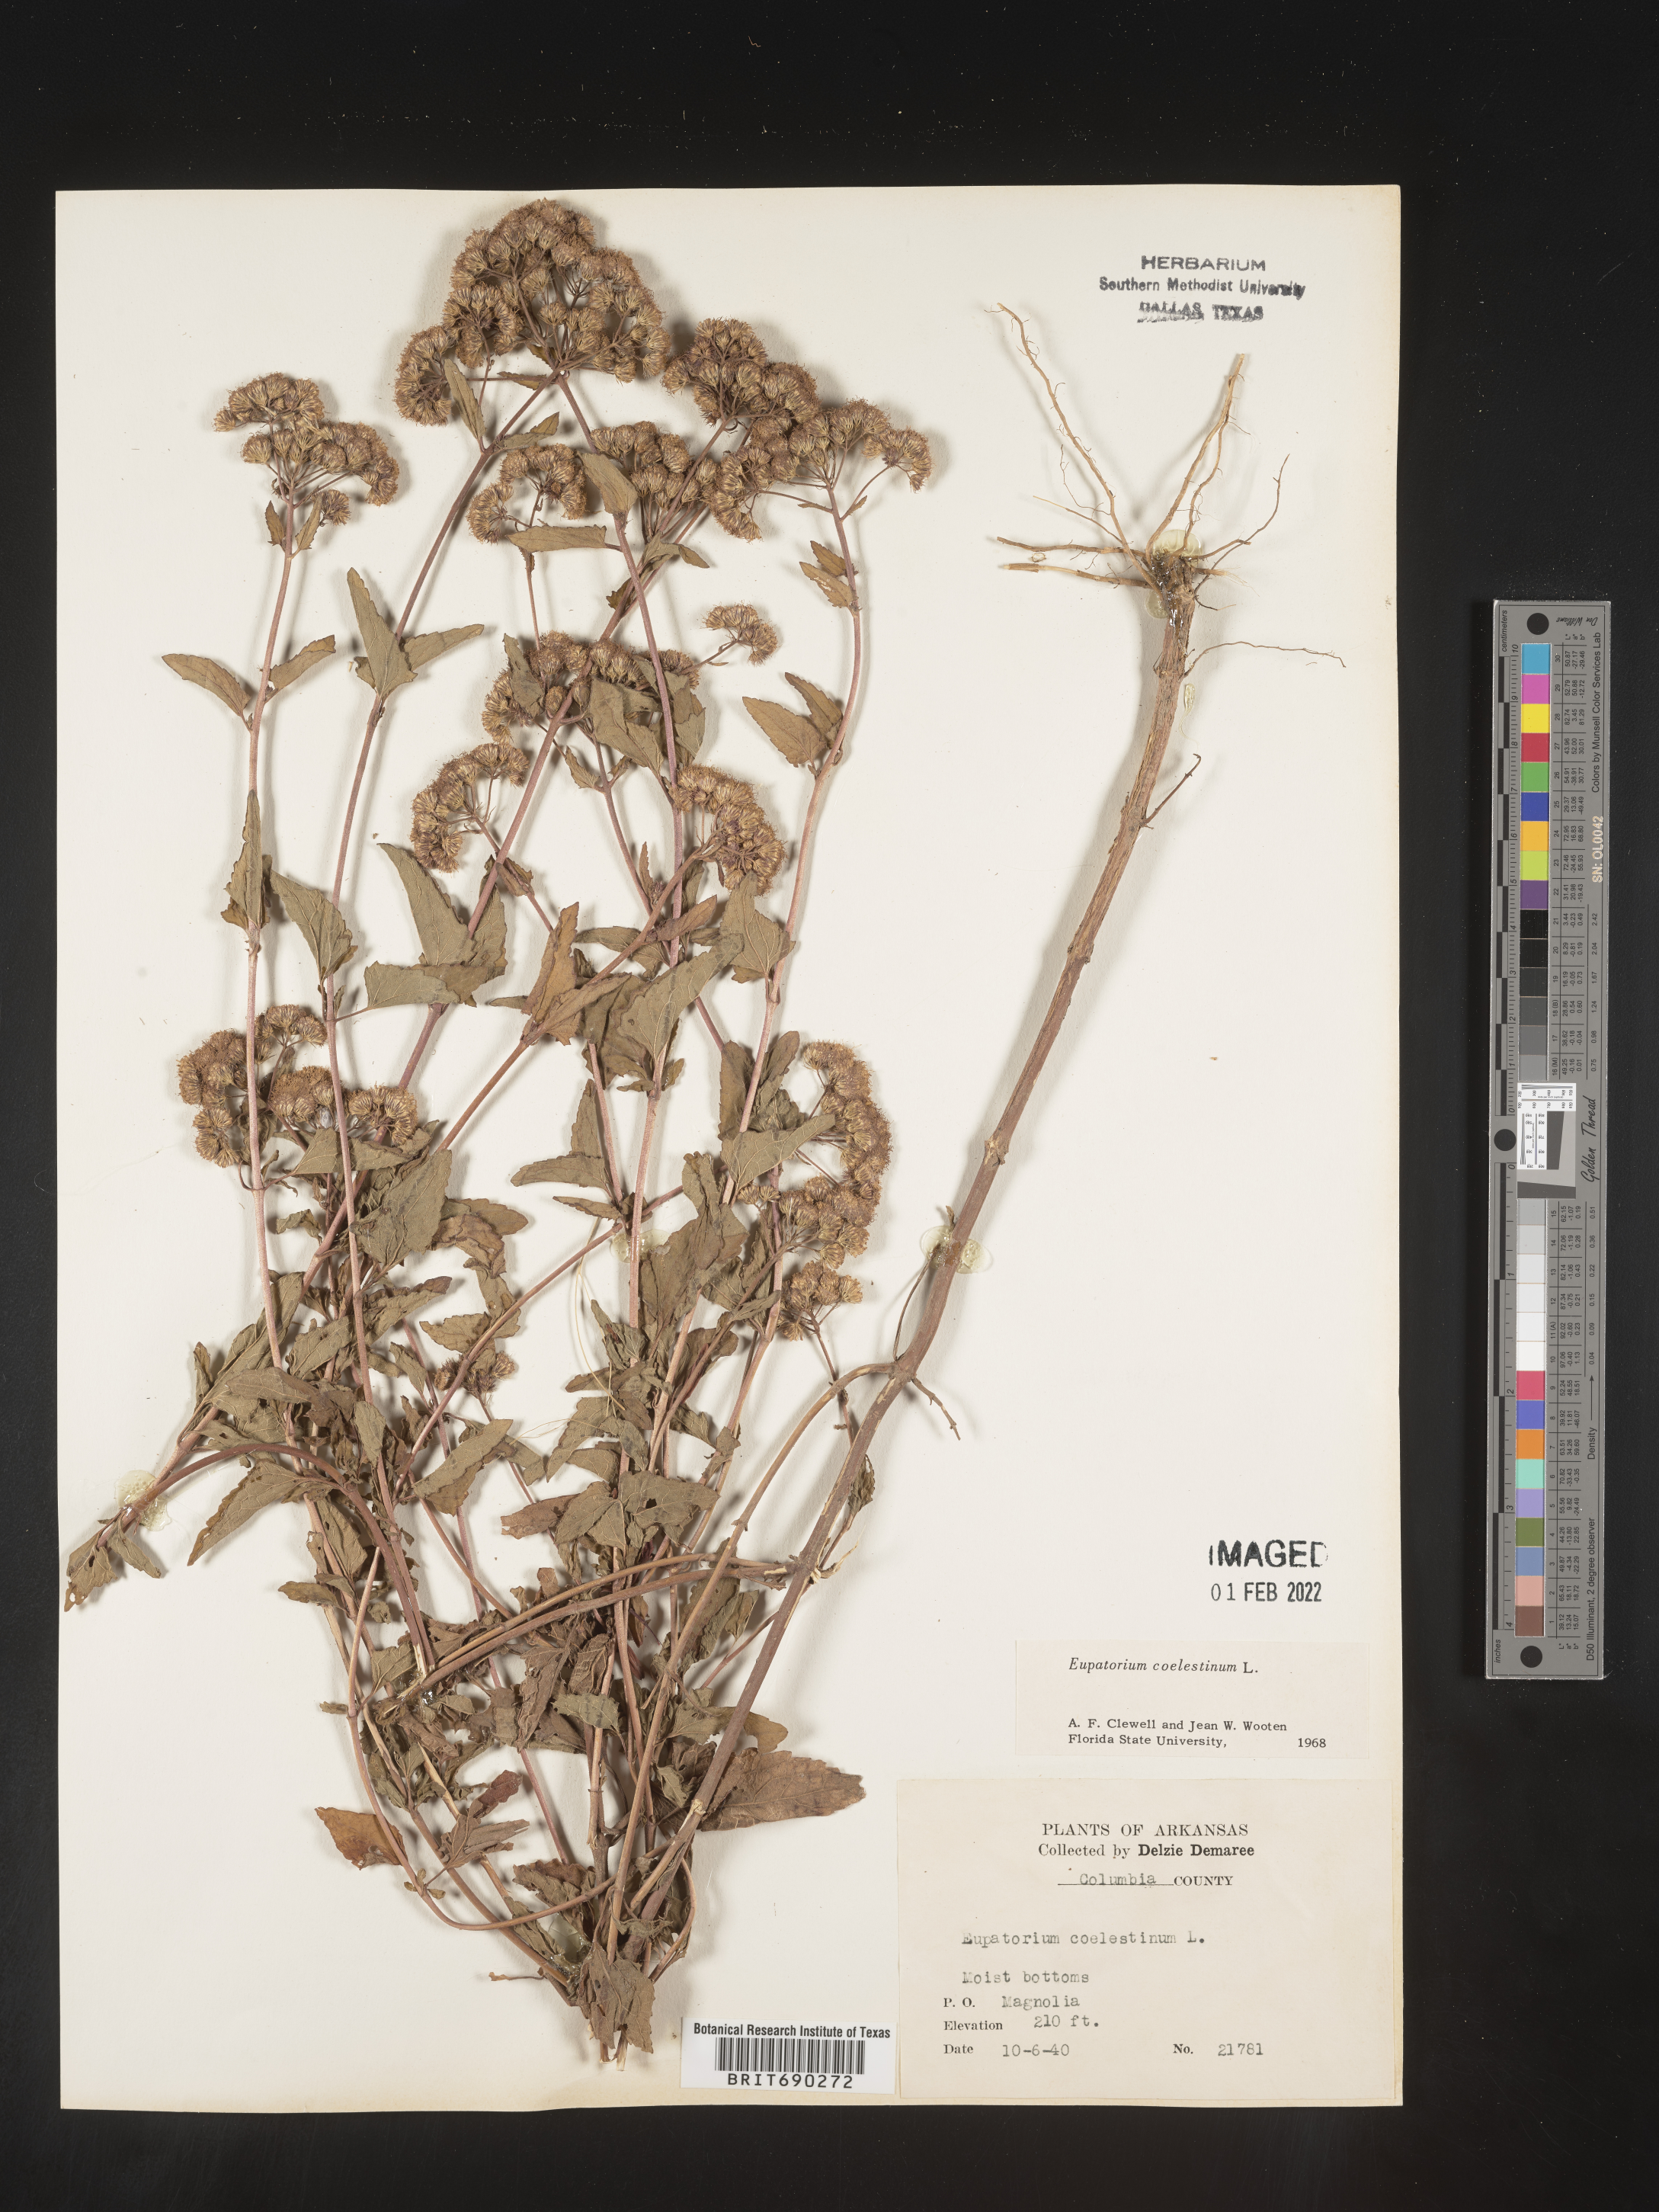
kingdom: Plantae
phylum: Tracheophyta
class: Magnoliopsida
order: Asterales
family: Asteraceae
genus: Conoclinium
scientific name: Conoclinium coelestinum
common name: Blue mistflower
